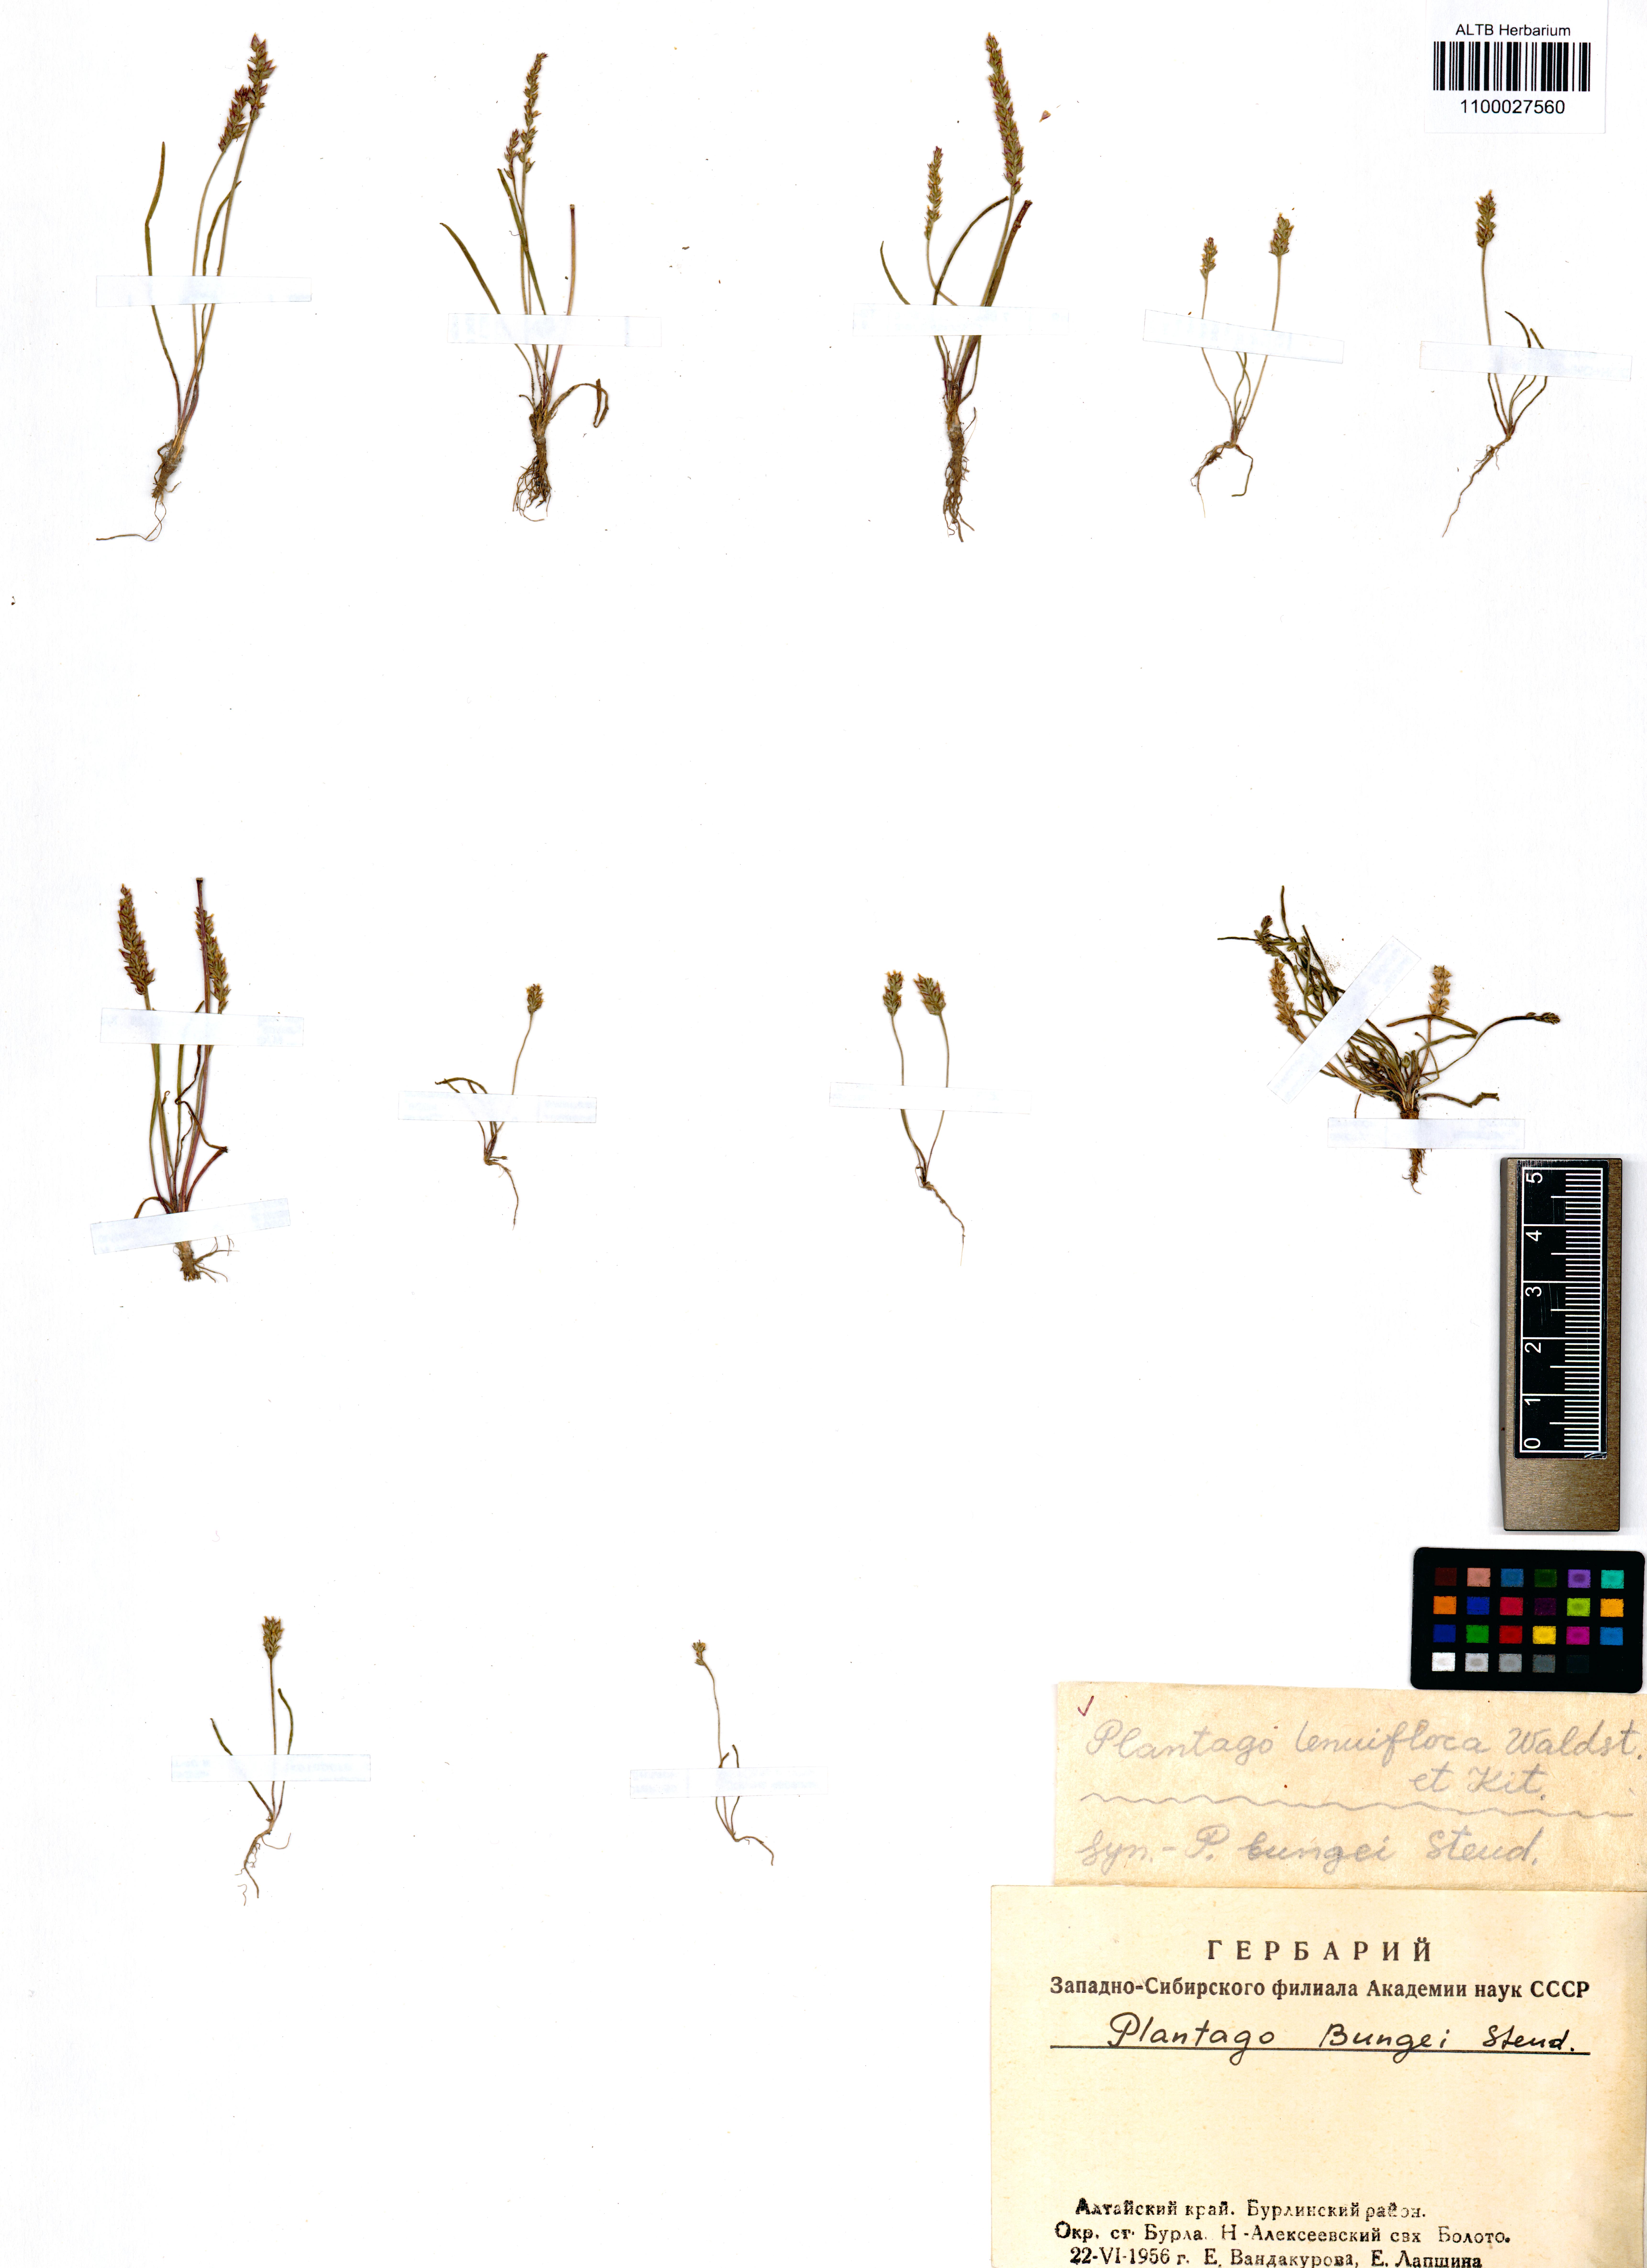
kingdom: Plantae
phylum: Tracheophyta
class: Magnoliopsida
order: Lamiales
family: Plantaginaceae
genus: Plantago
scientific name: Plantago tenuiflora
